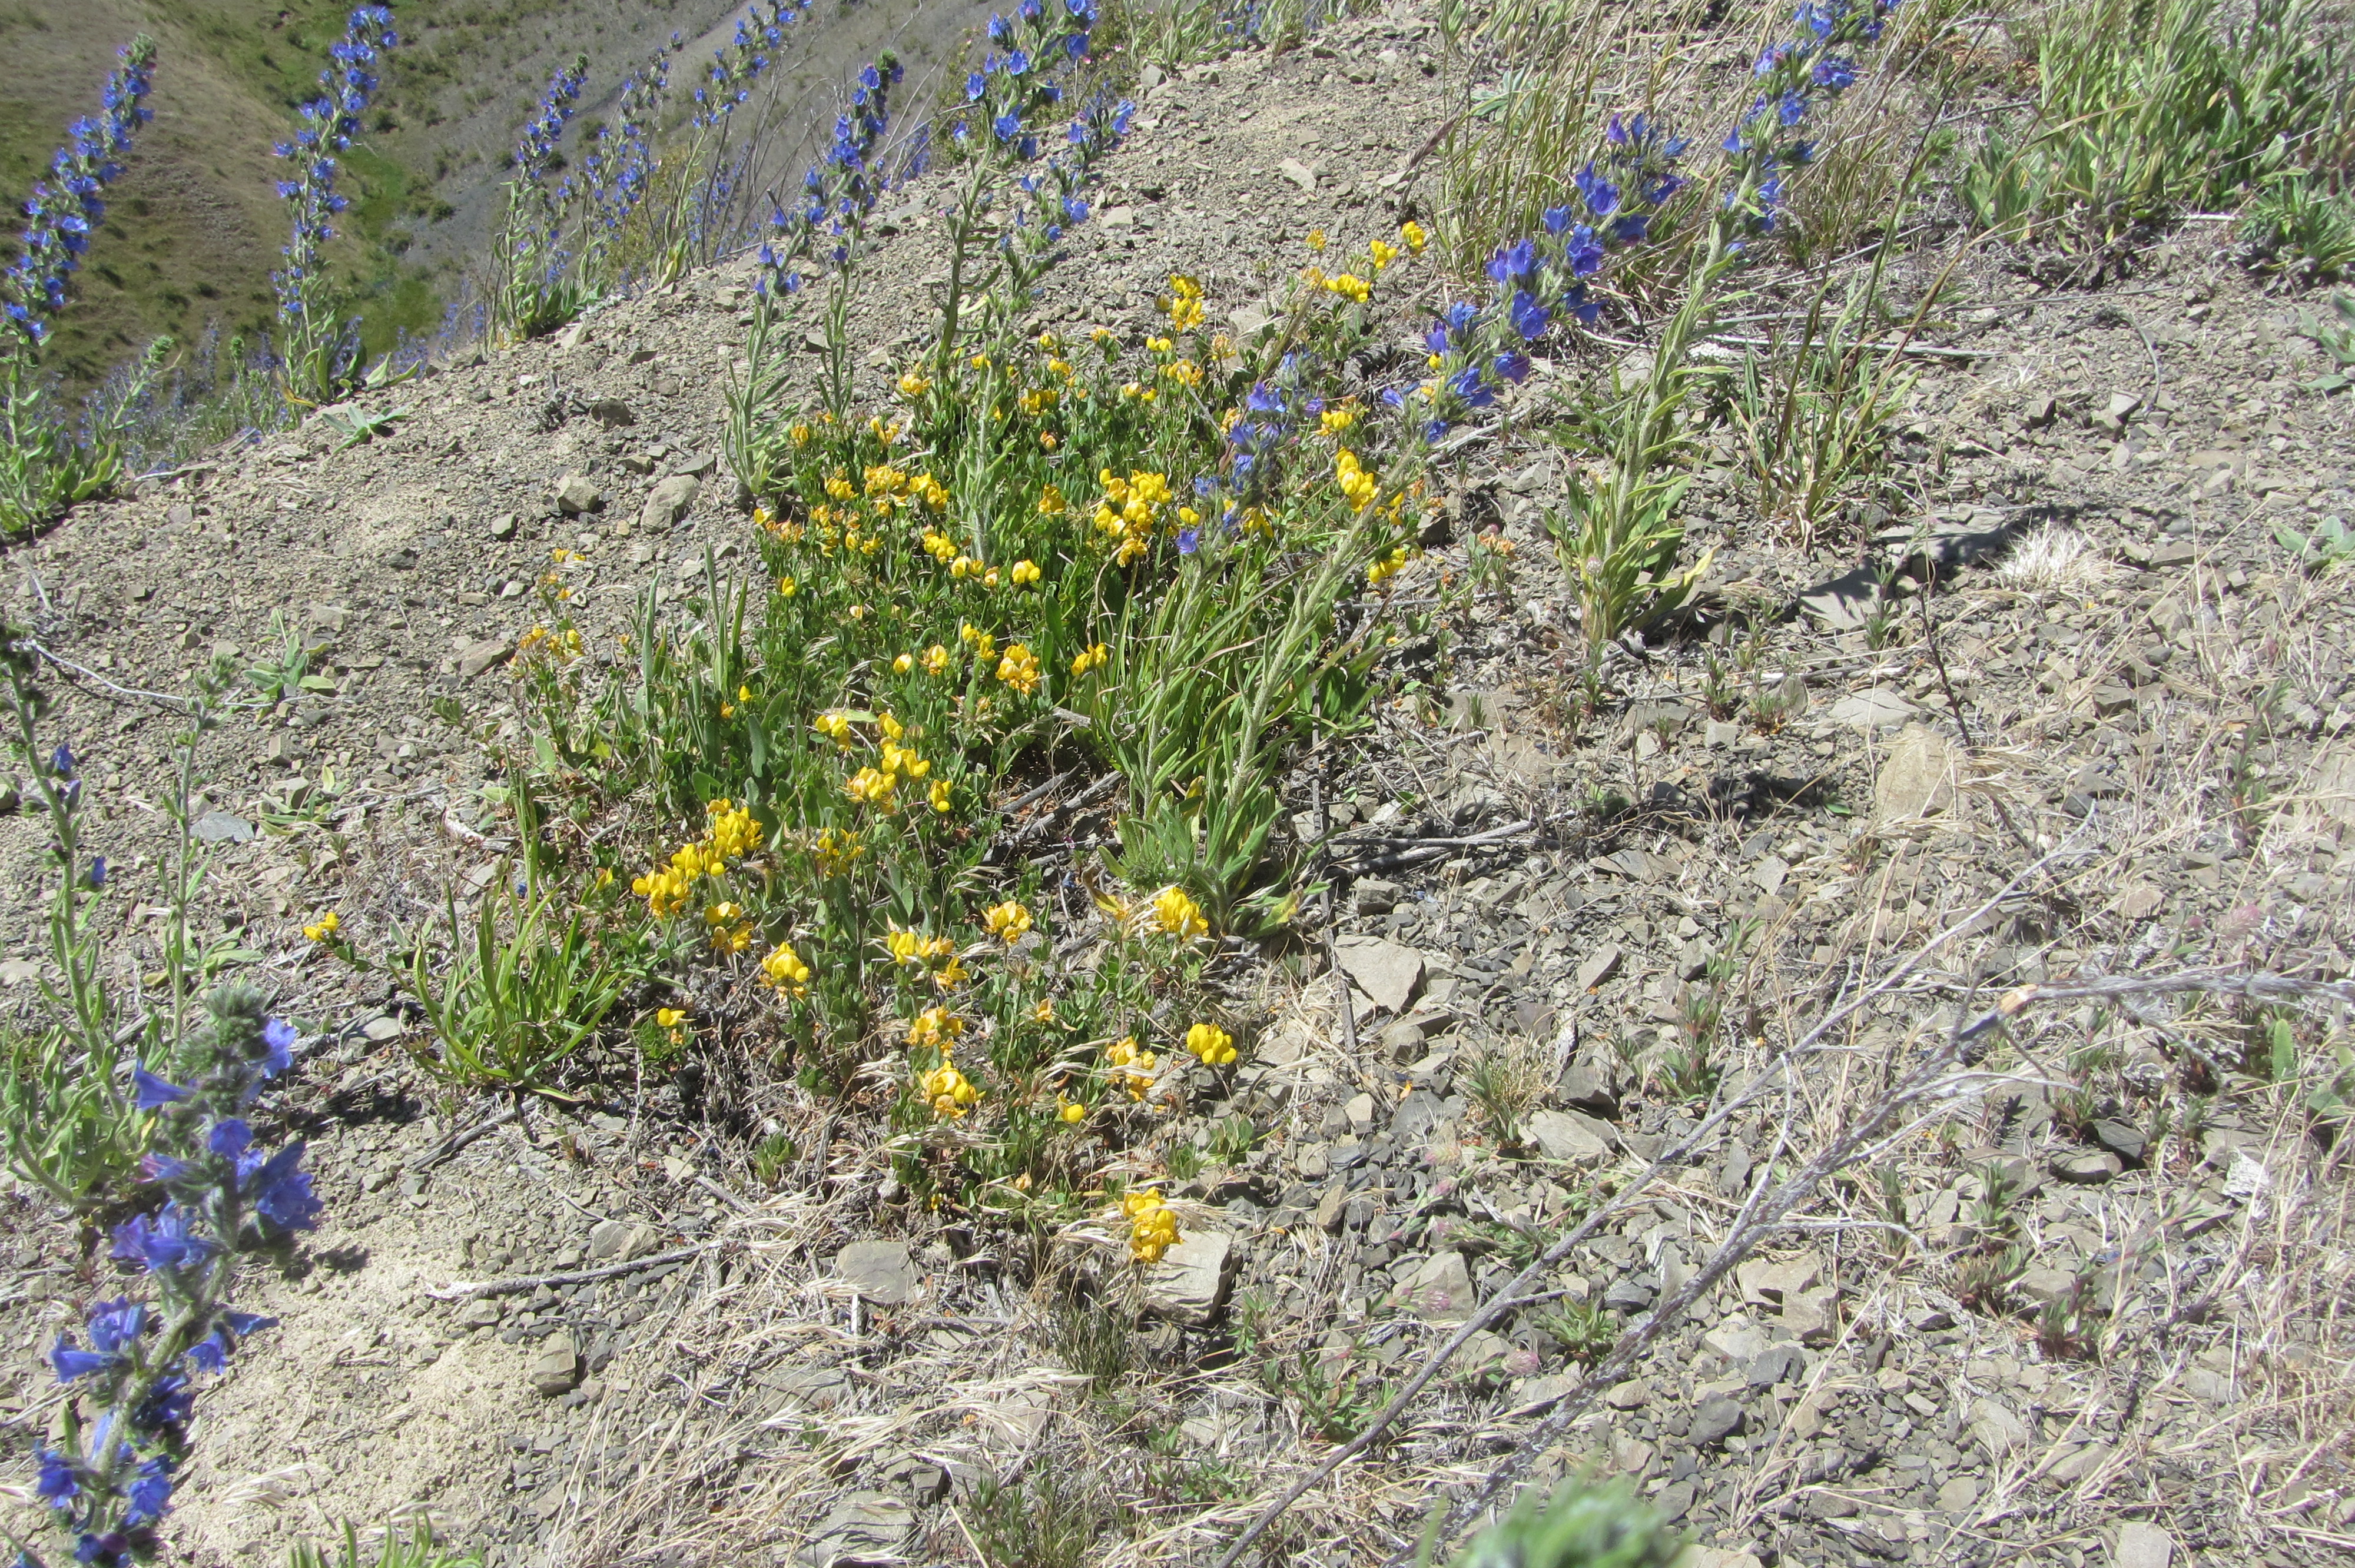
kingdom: Plantae
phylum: Tracheophyta
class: Magnoliopsida
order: Fabales
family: Fabaceae
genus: Lotus
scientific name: Lotus pedunculatus
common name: Greater birdsfoot-trefoil
